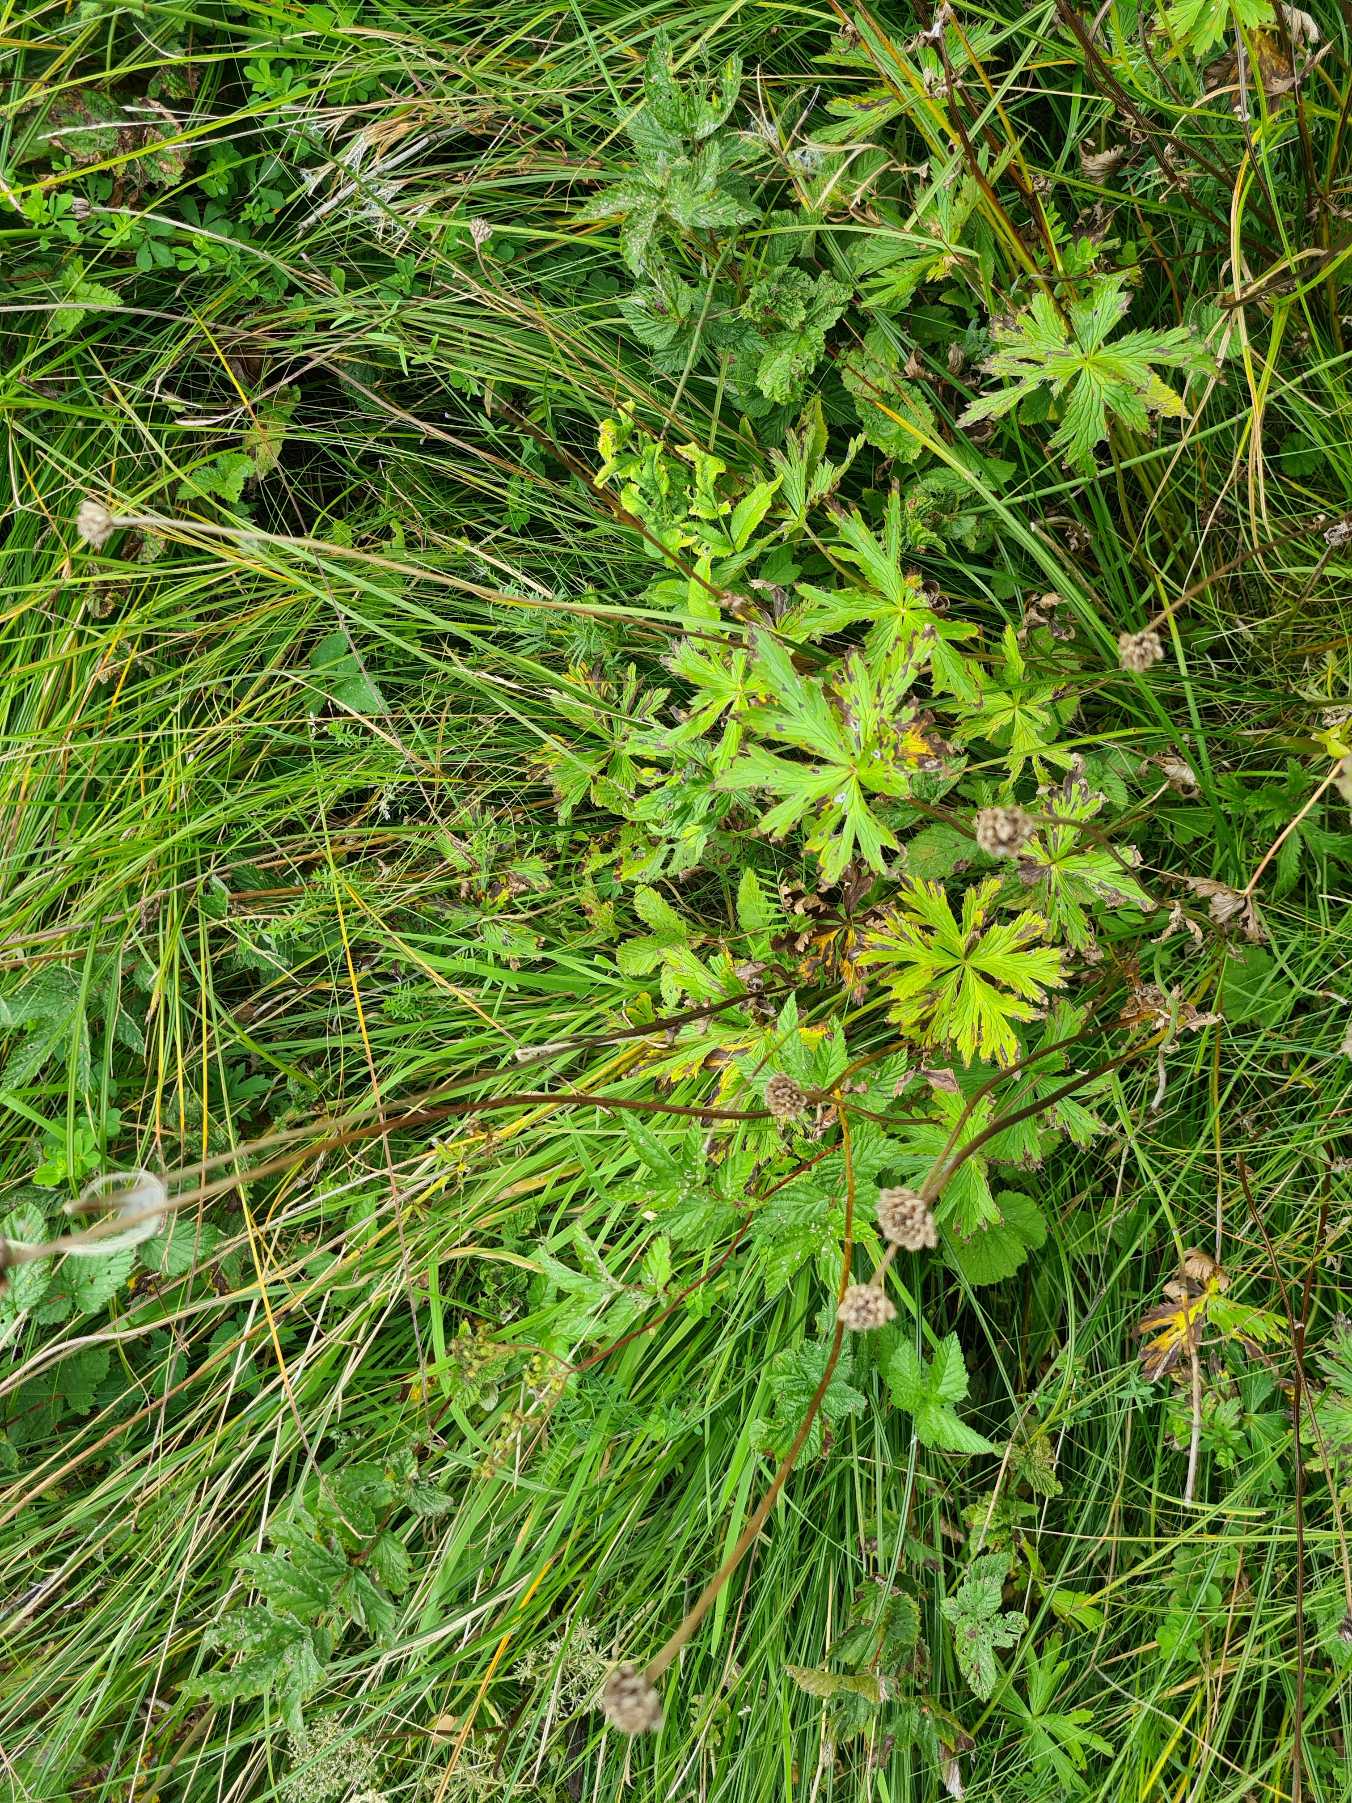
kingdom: Plantae
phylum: Tracheophyta
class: Magnoliopsida
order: Ranunculales
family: Ranunculaceae
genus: Trollius
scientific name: Trollius europaeus
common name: Engblomme
